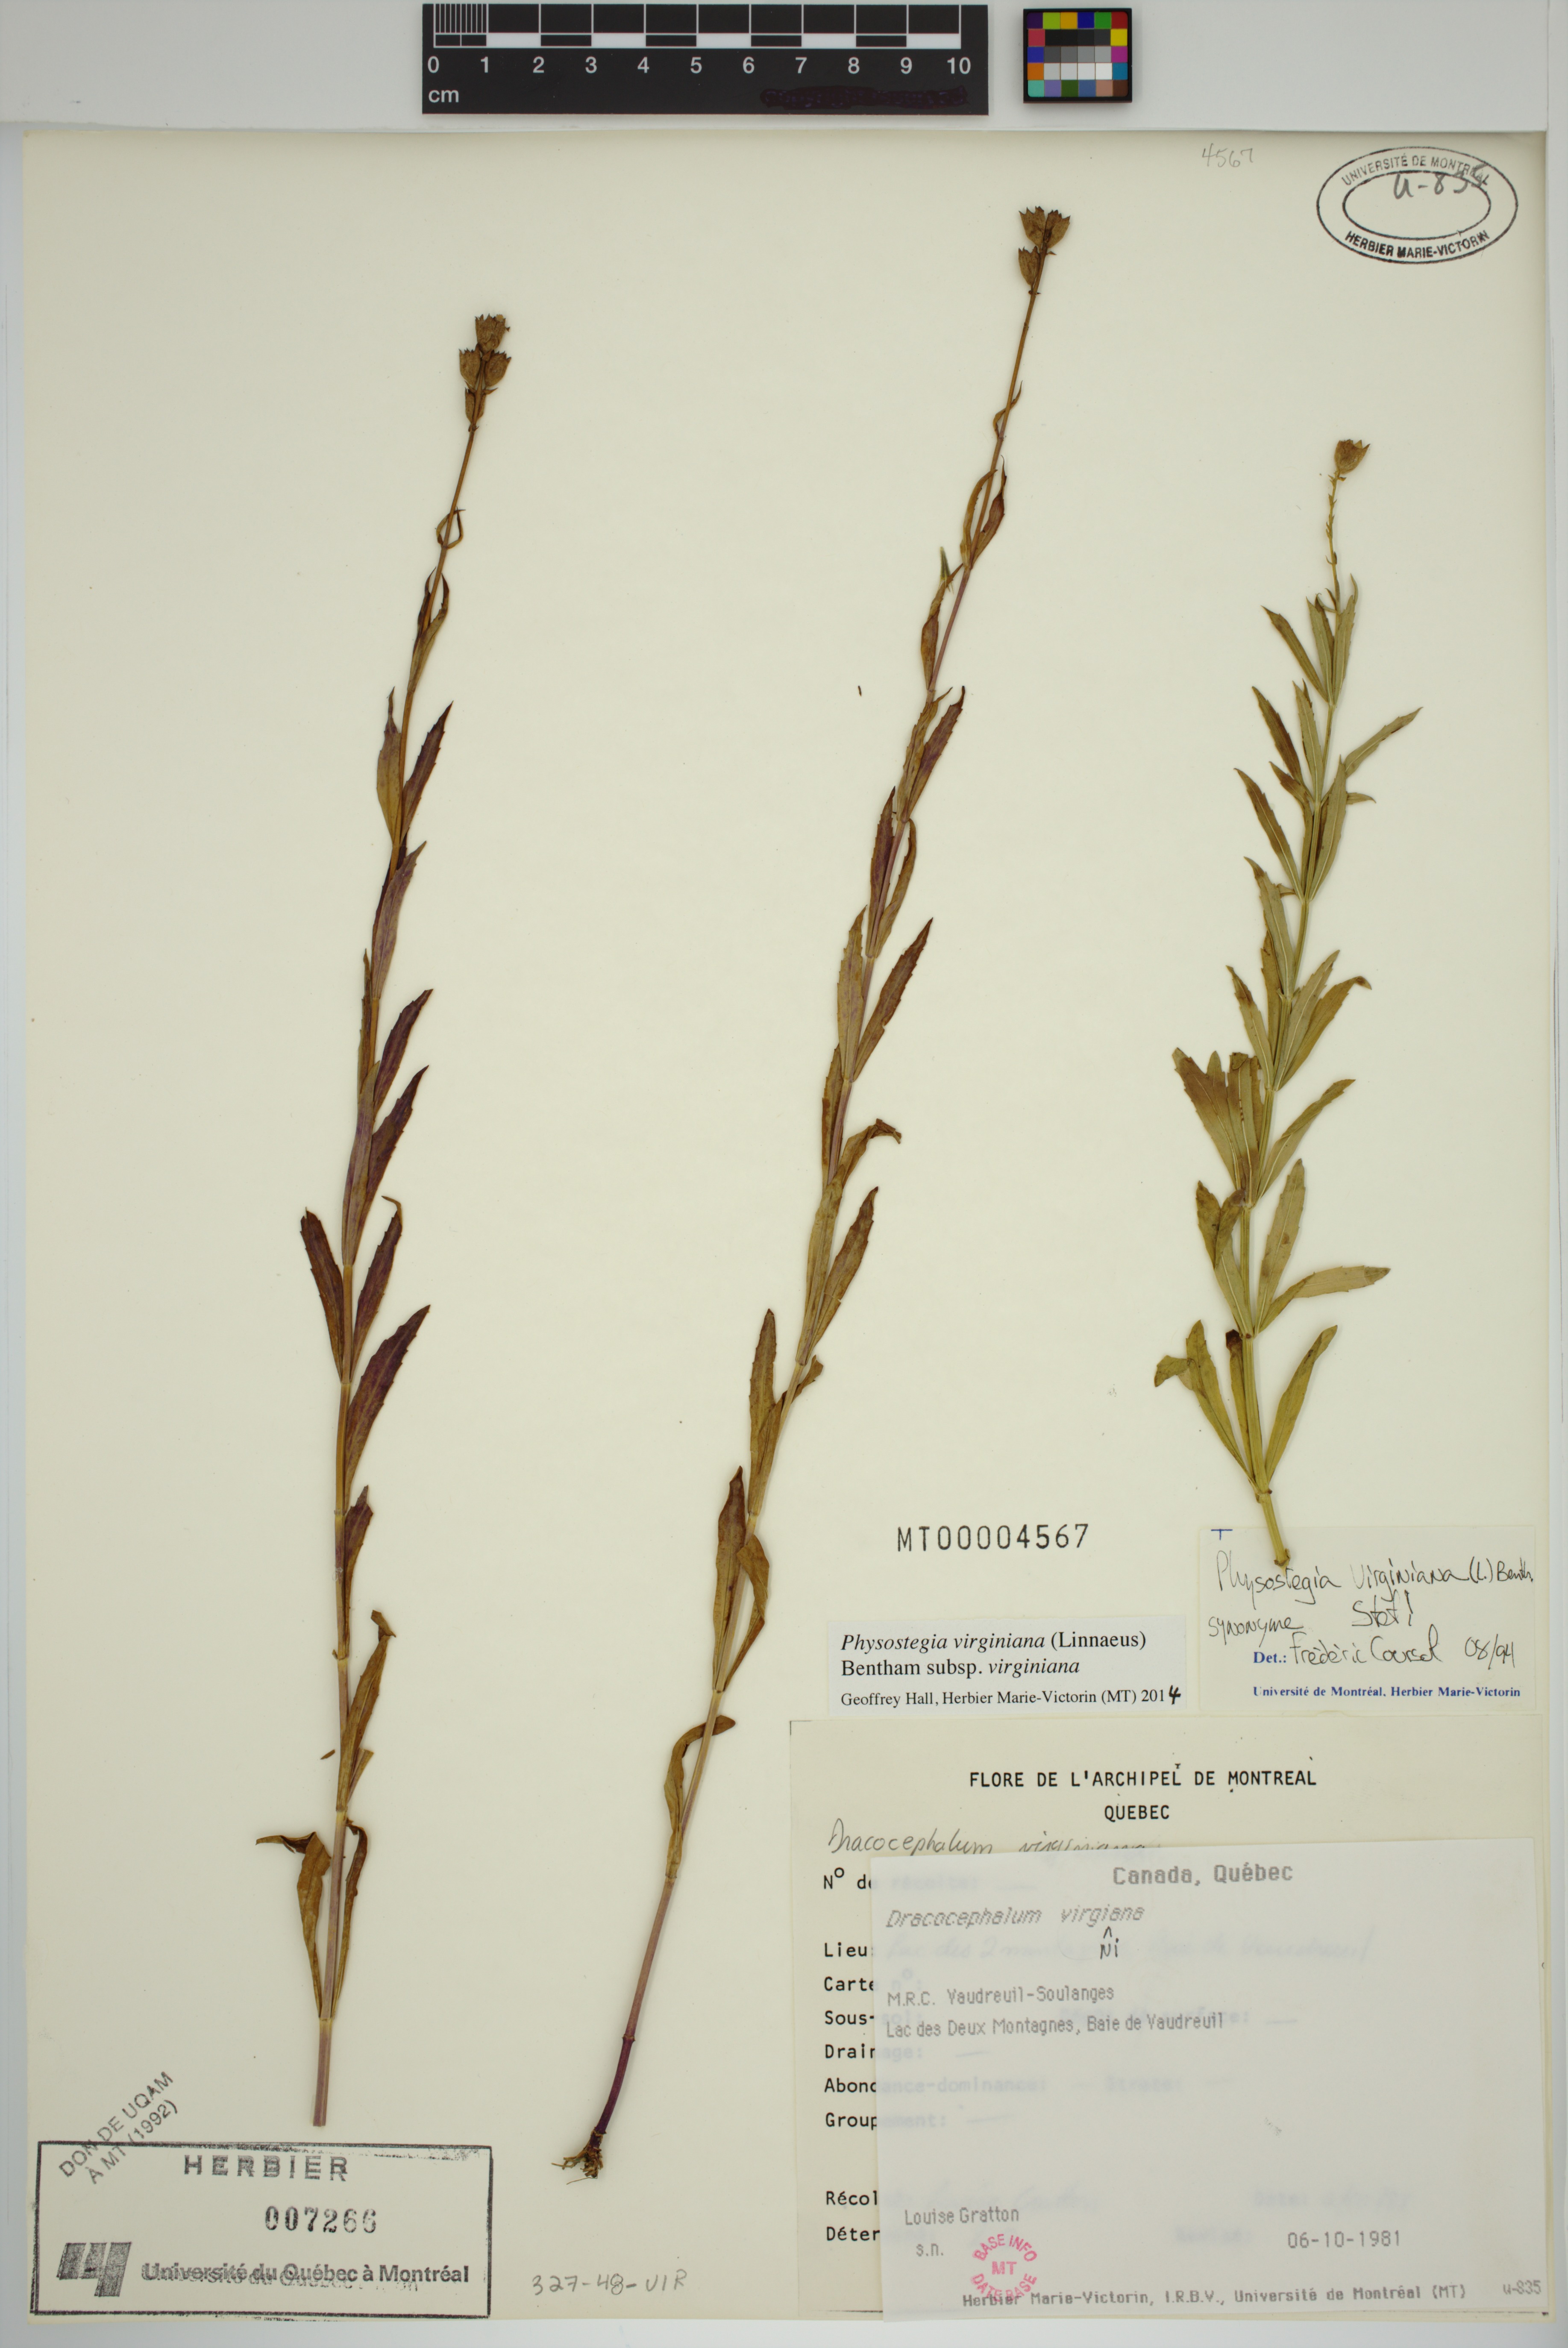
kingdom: Plantae
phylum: Tracheophyta
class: Magnoliopsida
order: Lamiales
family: Lamiaceae
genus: Physostegia
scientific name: Physostegia virginiana
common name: Obedient-plant
